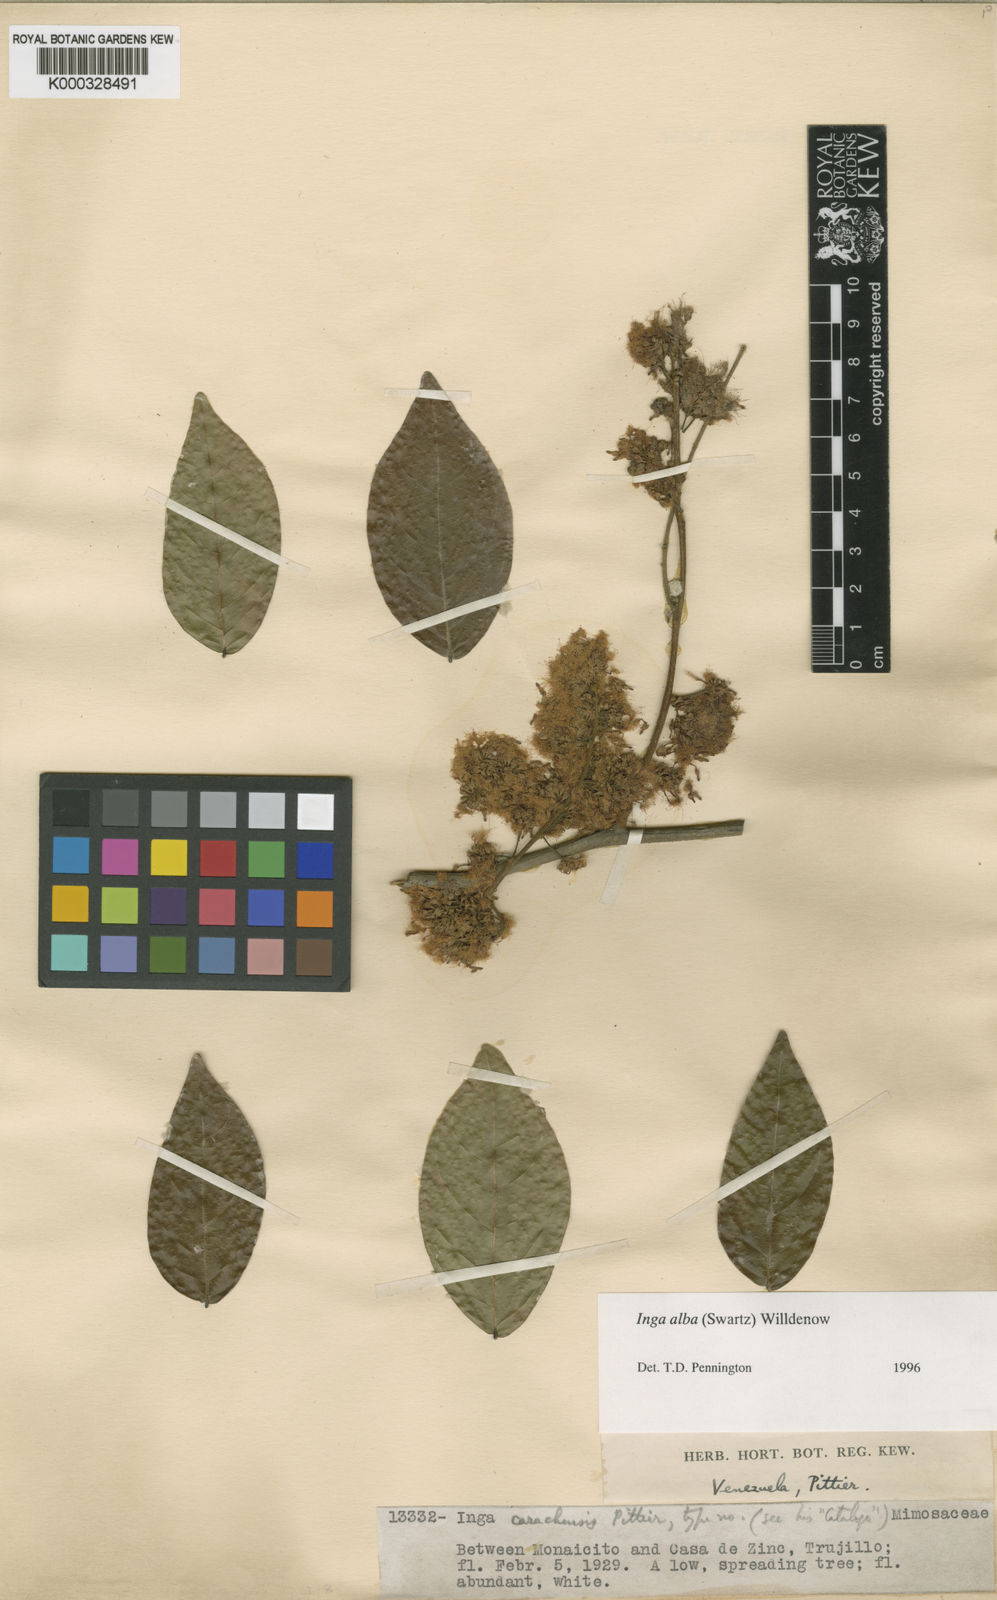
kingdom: Plantae
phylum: Tracheophyta
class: Magnoliopsida
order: Fabales
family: Fabaceae
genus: Inga
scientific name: Inga alba
